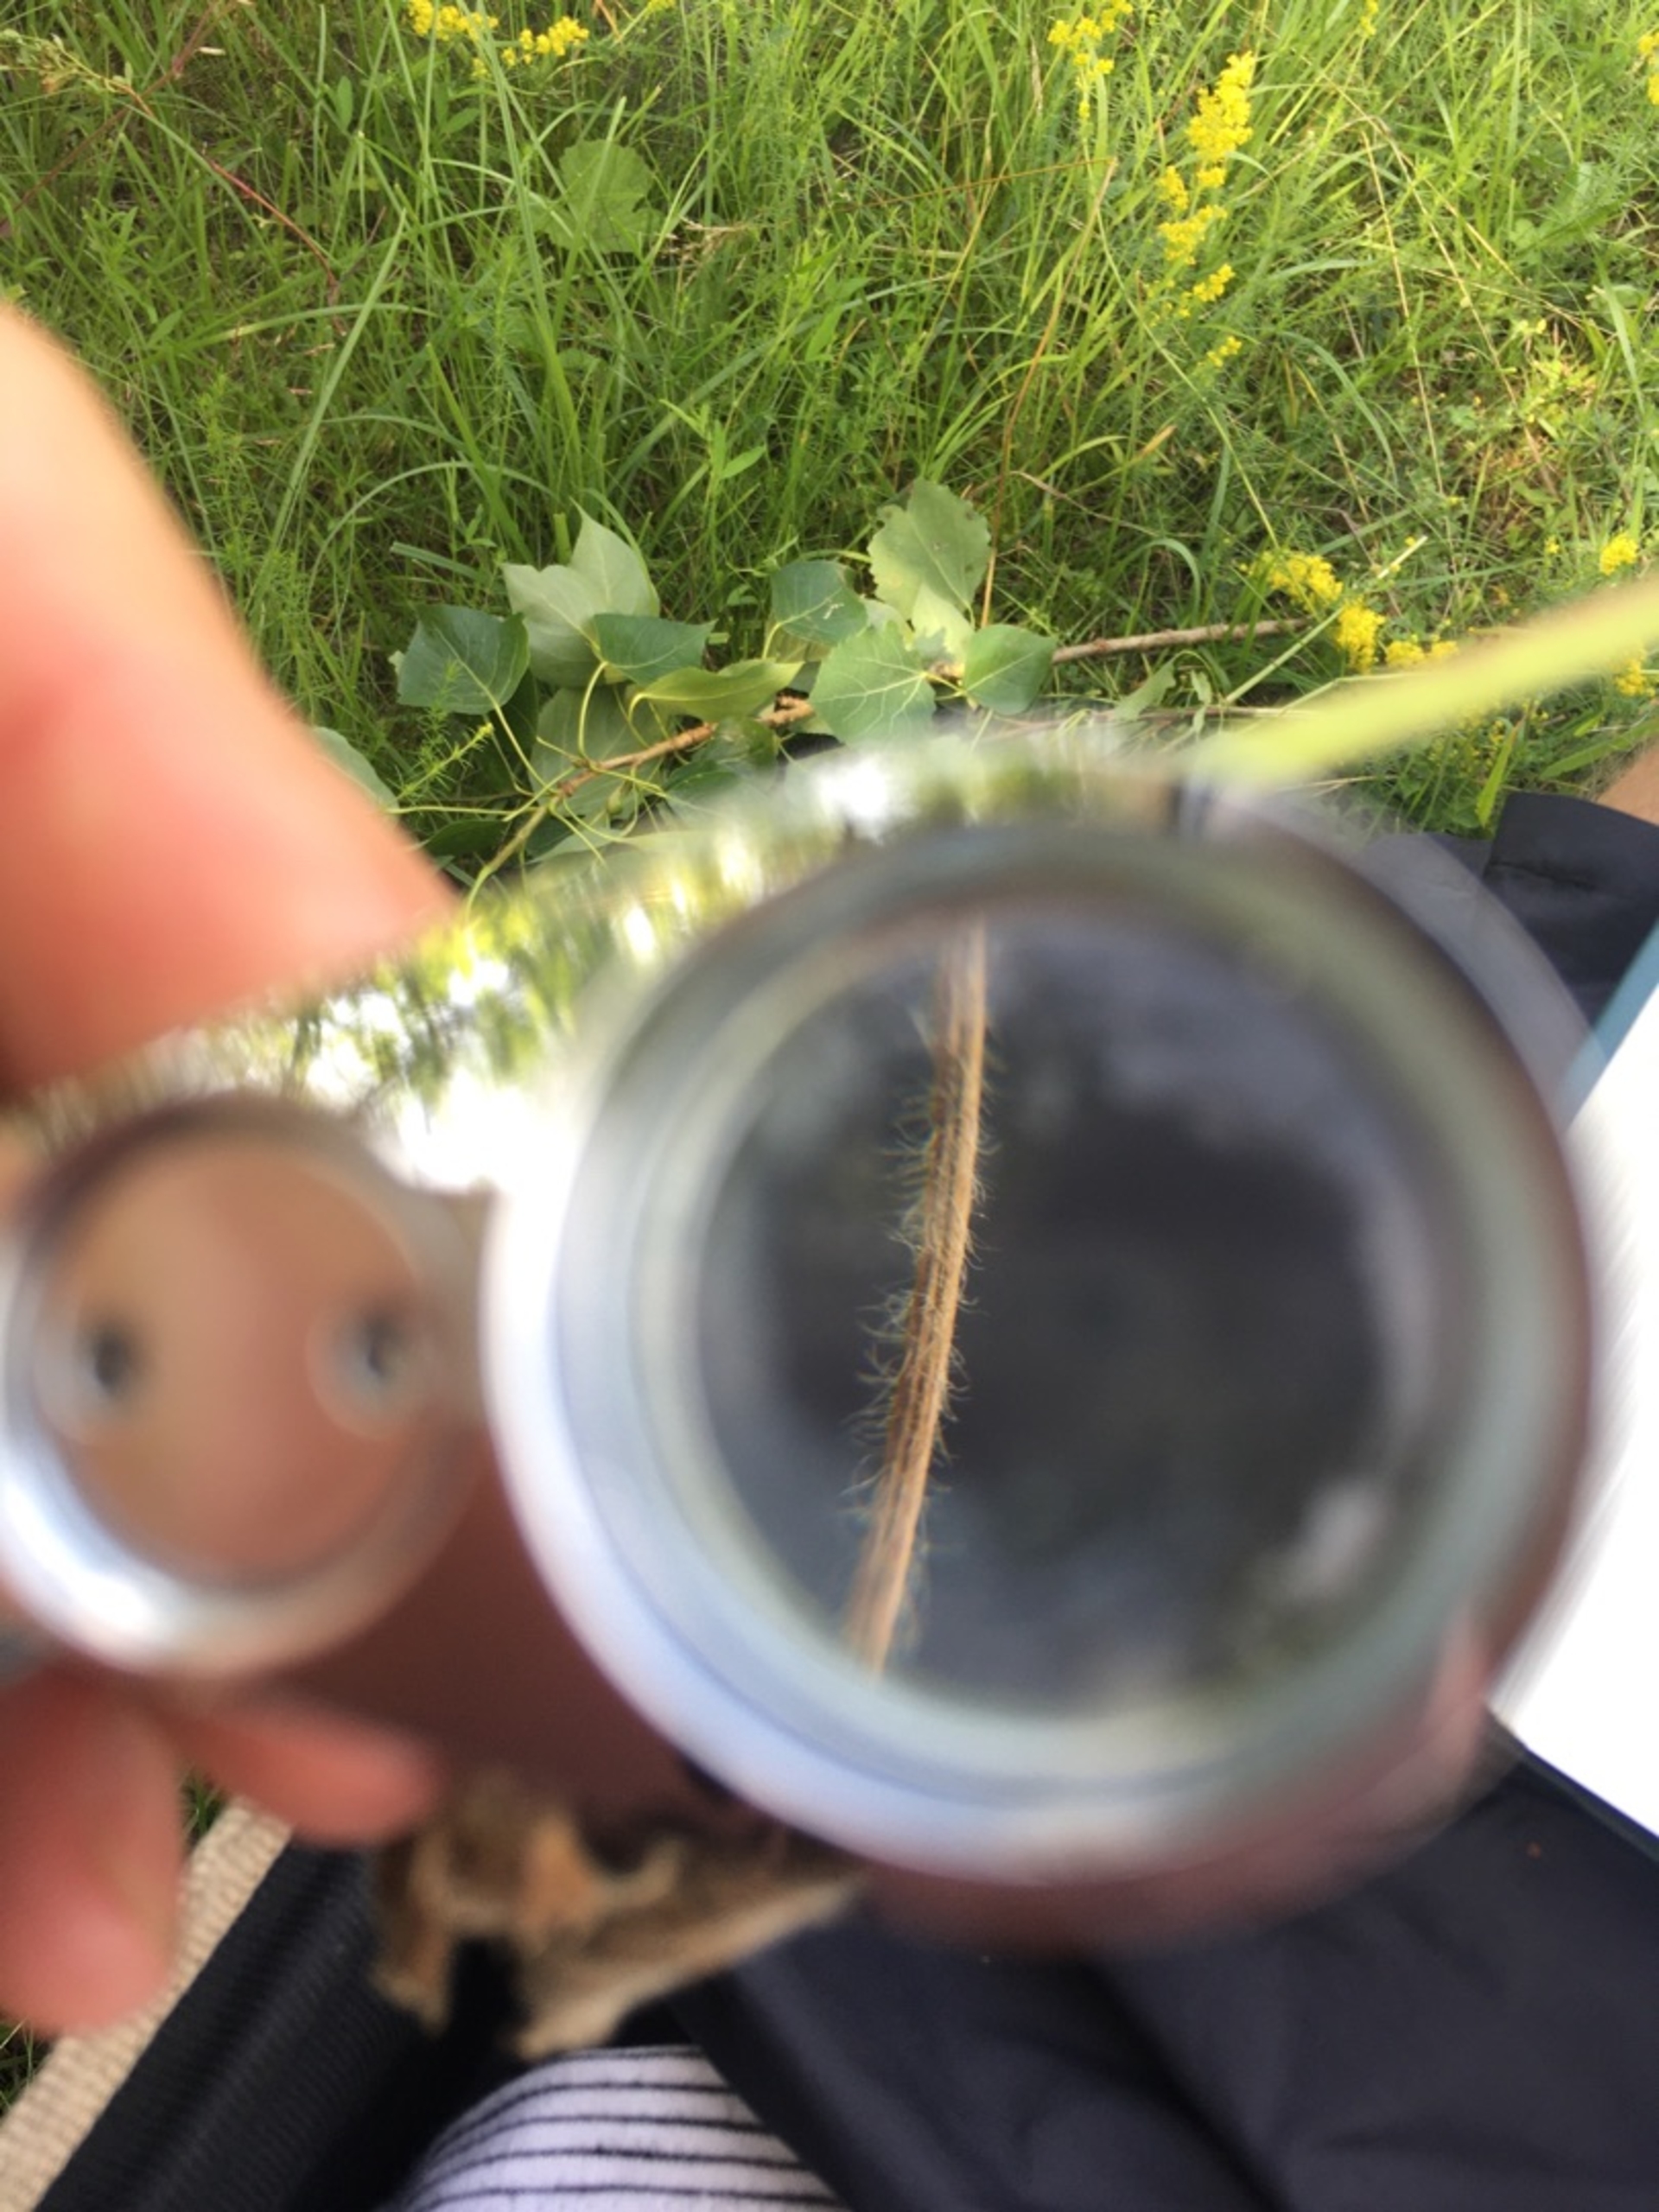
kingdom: Plantae
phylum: Tracheophyta
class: Magnoliopsida
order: Rosales
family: Rosaceae
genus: Alchemilla
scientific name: Alchemilla
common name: Løvefodslægten
